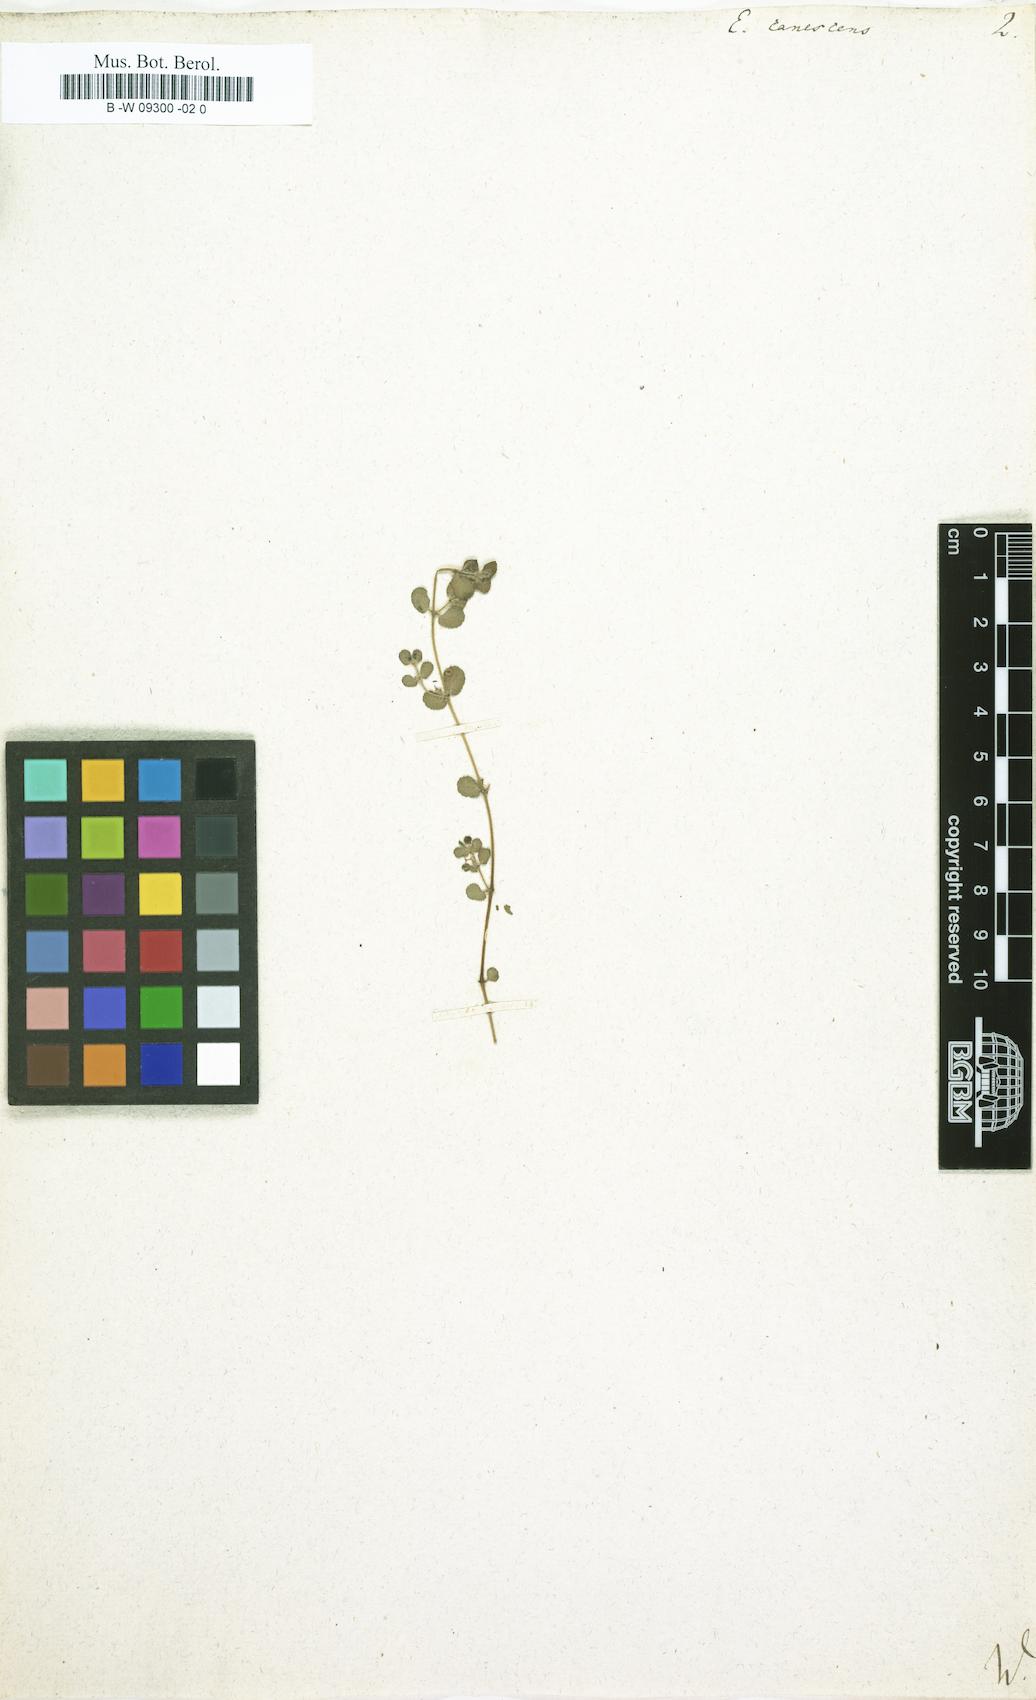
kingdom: Plantae
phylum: Tracheophyta
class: Magnoliopsida
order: Malpighiales
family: Euphorbiaceae
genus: Euphorbia
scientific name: Euphorbia chamaesyce
